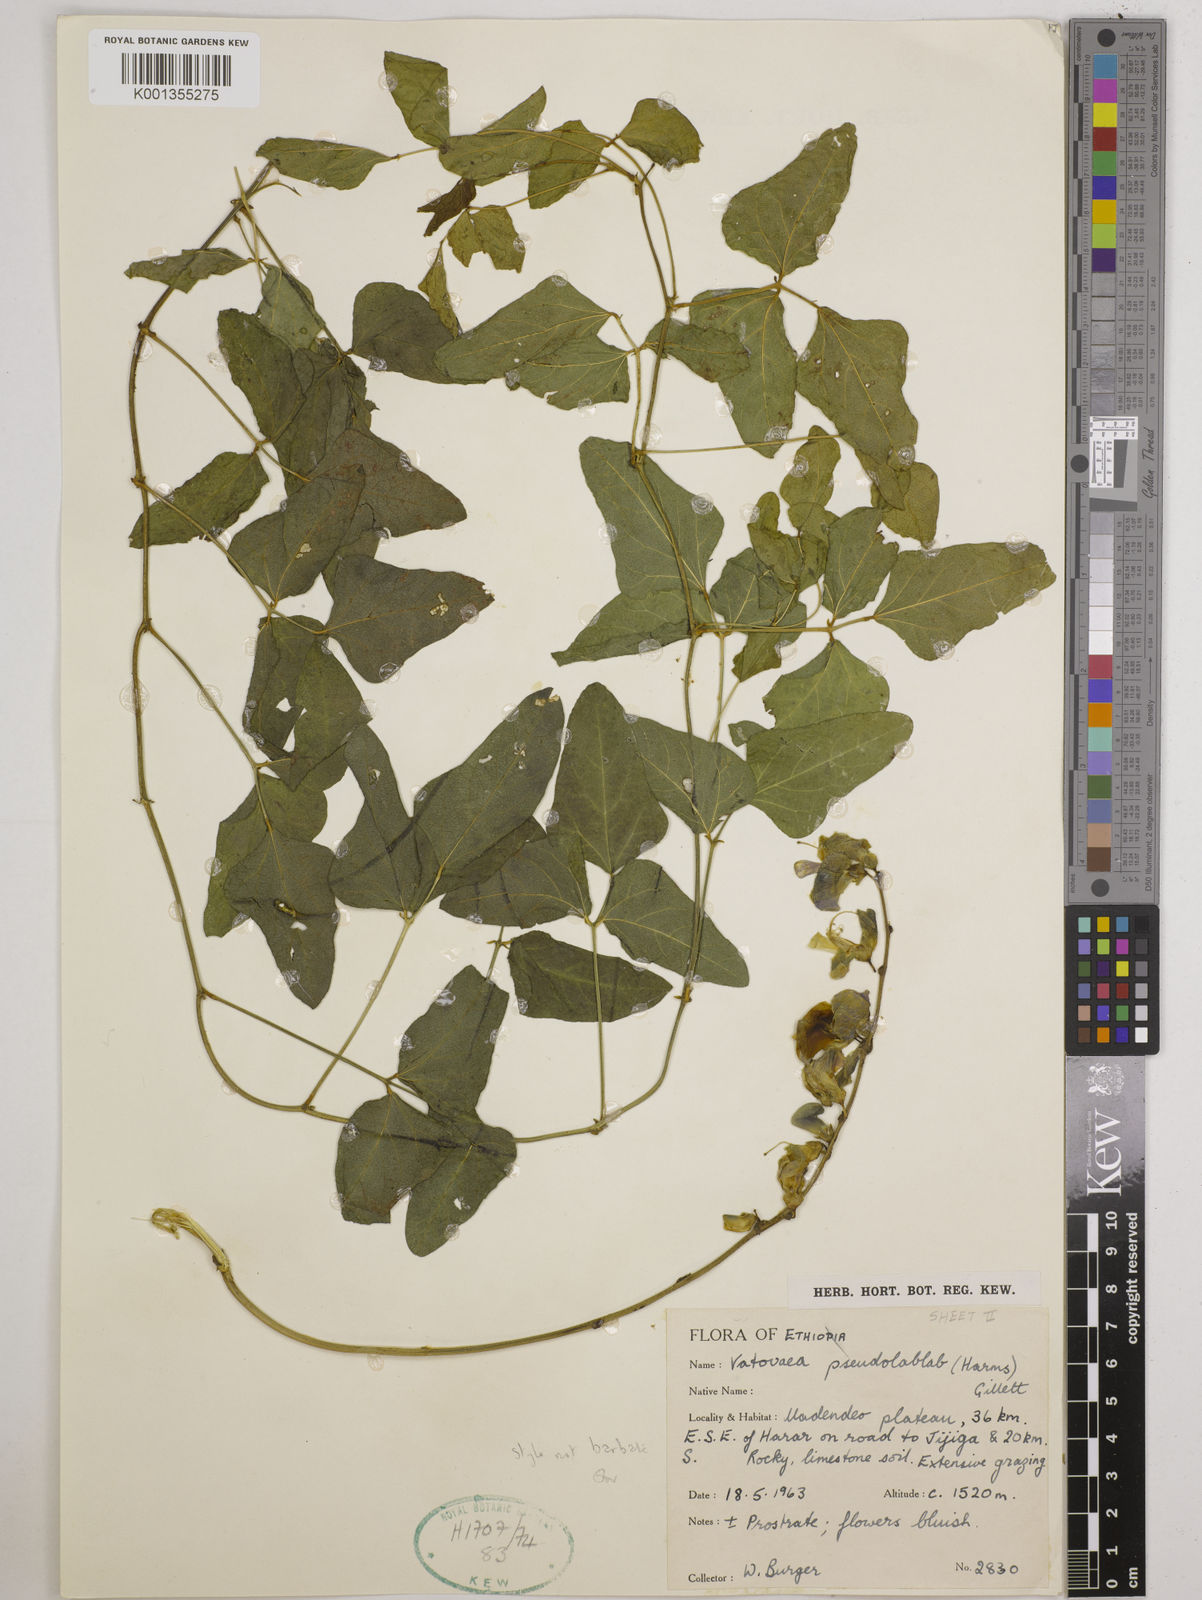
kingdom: Plantae
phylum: Tracheophyta
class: Magnoliopsida
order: Fabales
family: Fabaceae
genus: Vatovaea
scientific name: Vatovaea pseudolablab
